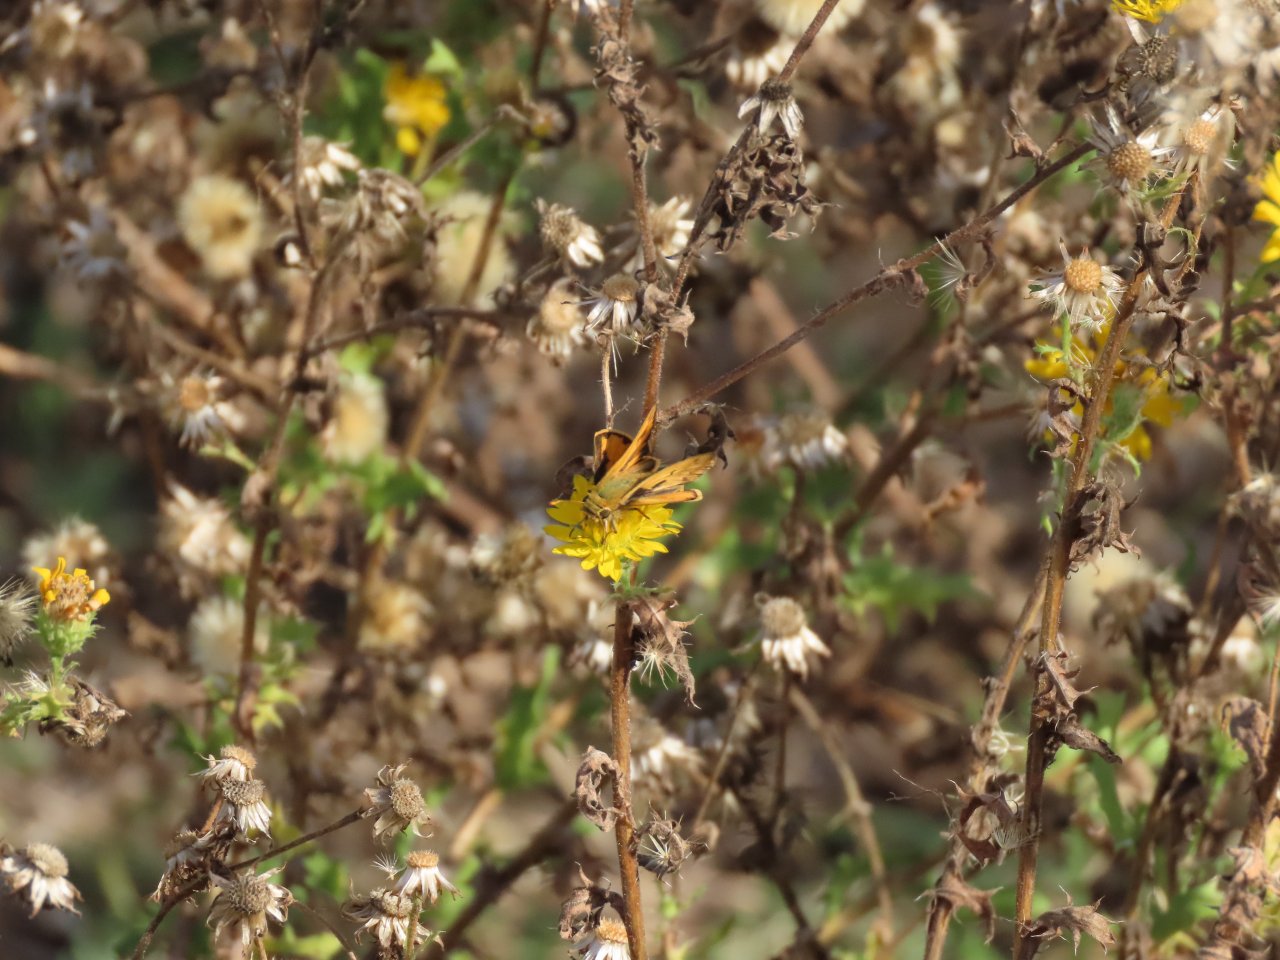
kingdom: Animalia
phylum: Arthropoda
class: Insecta
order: Lepidoptera
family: Hesperiidae
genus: Hylephila
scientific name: Hylephila phyleus
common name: Fiery Skipper
